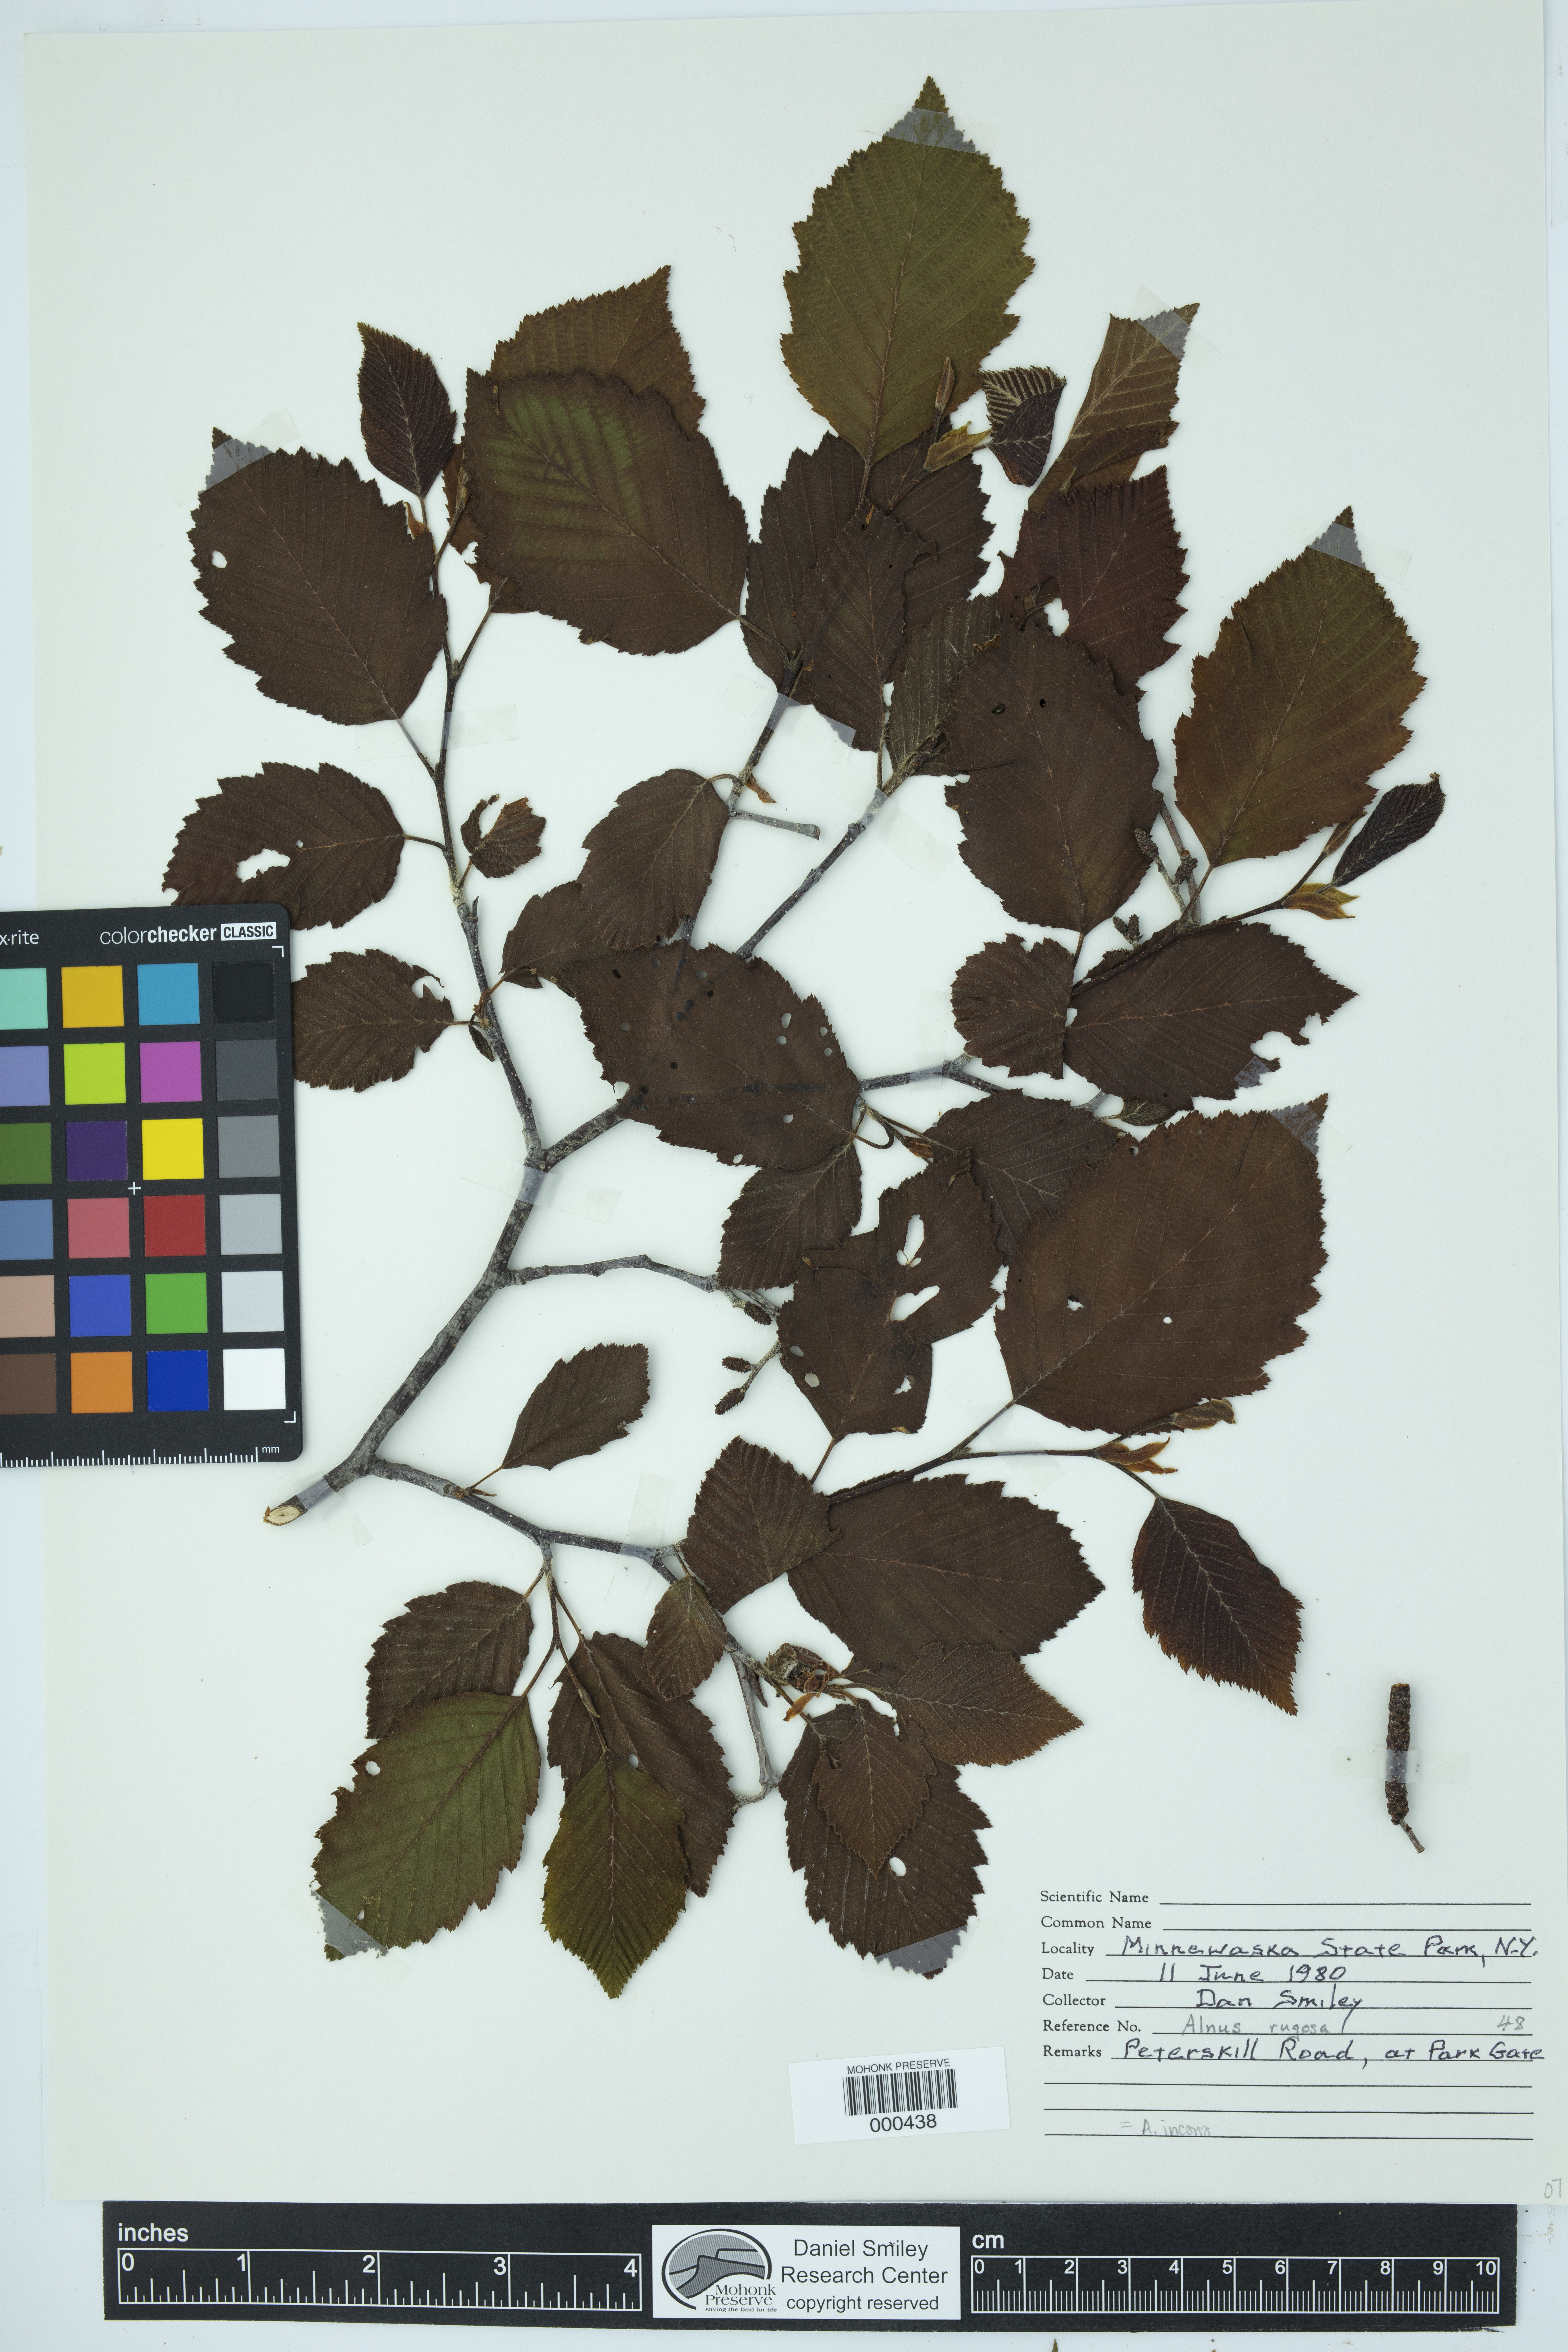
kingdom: Plantae
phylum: Tracheophyta
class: Magnoliopsida
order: Fagales
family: Betulaceae
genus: Alnus
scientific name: Alnus incana
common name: Grey alder
